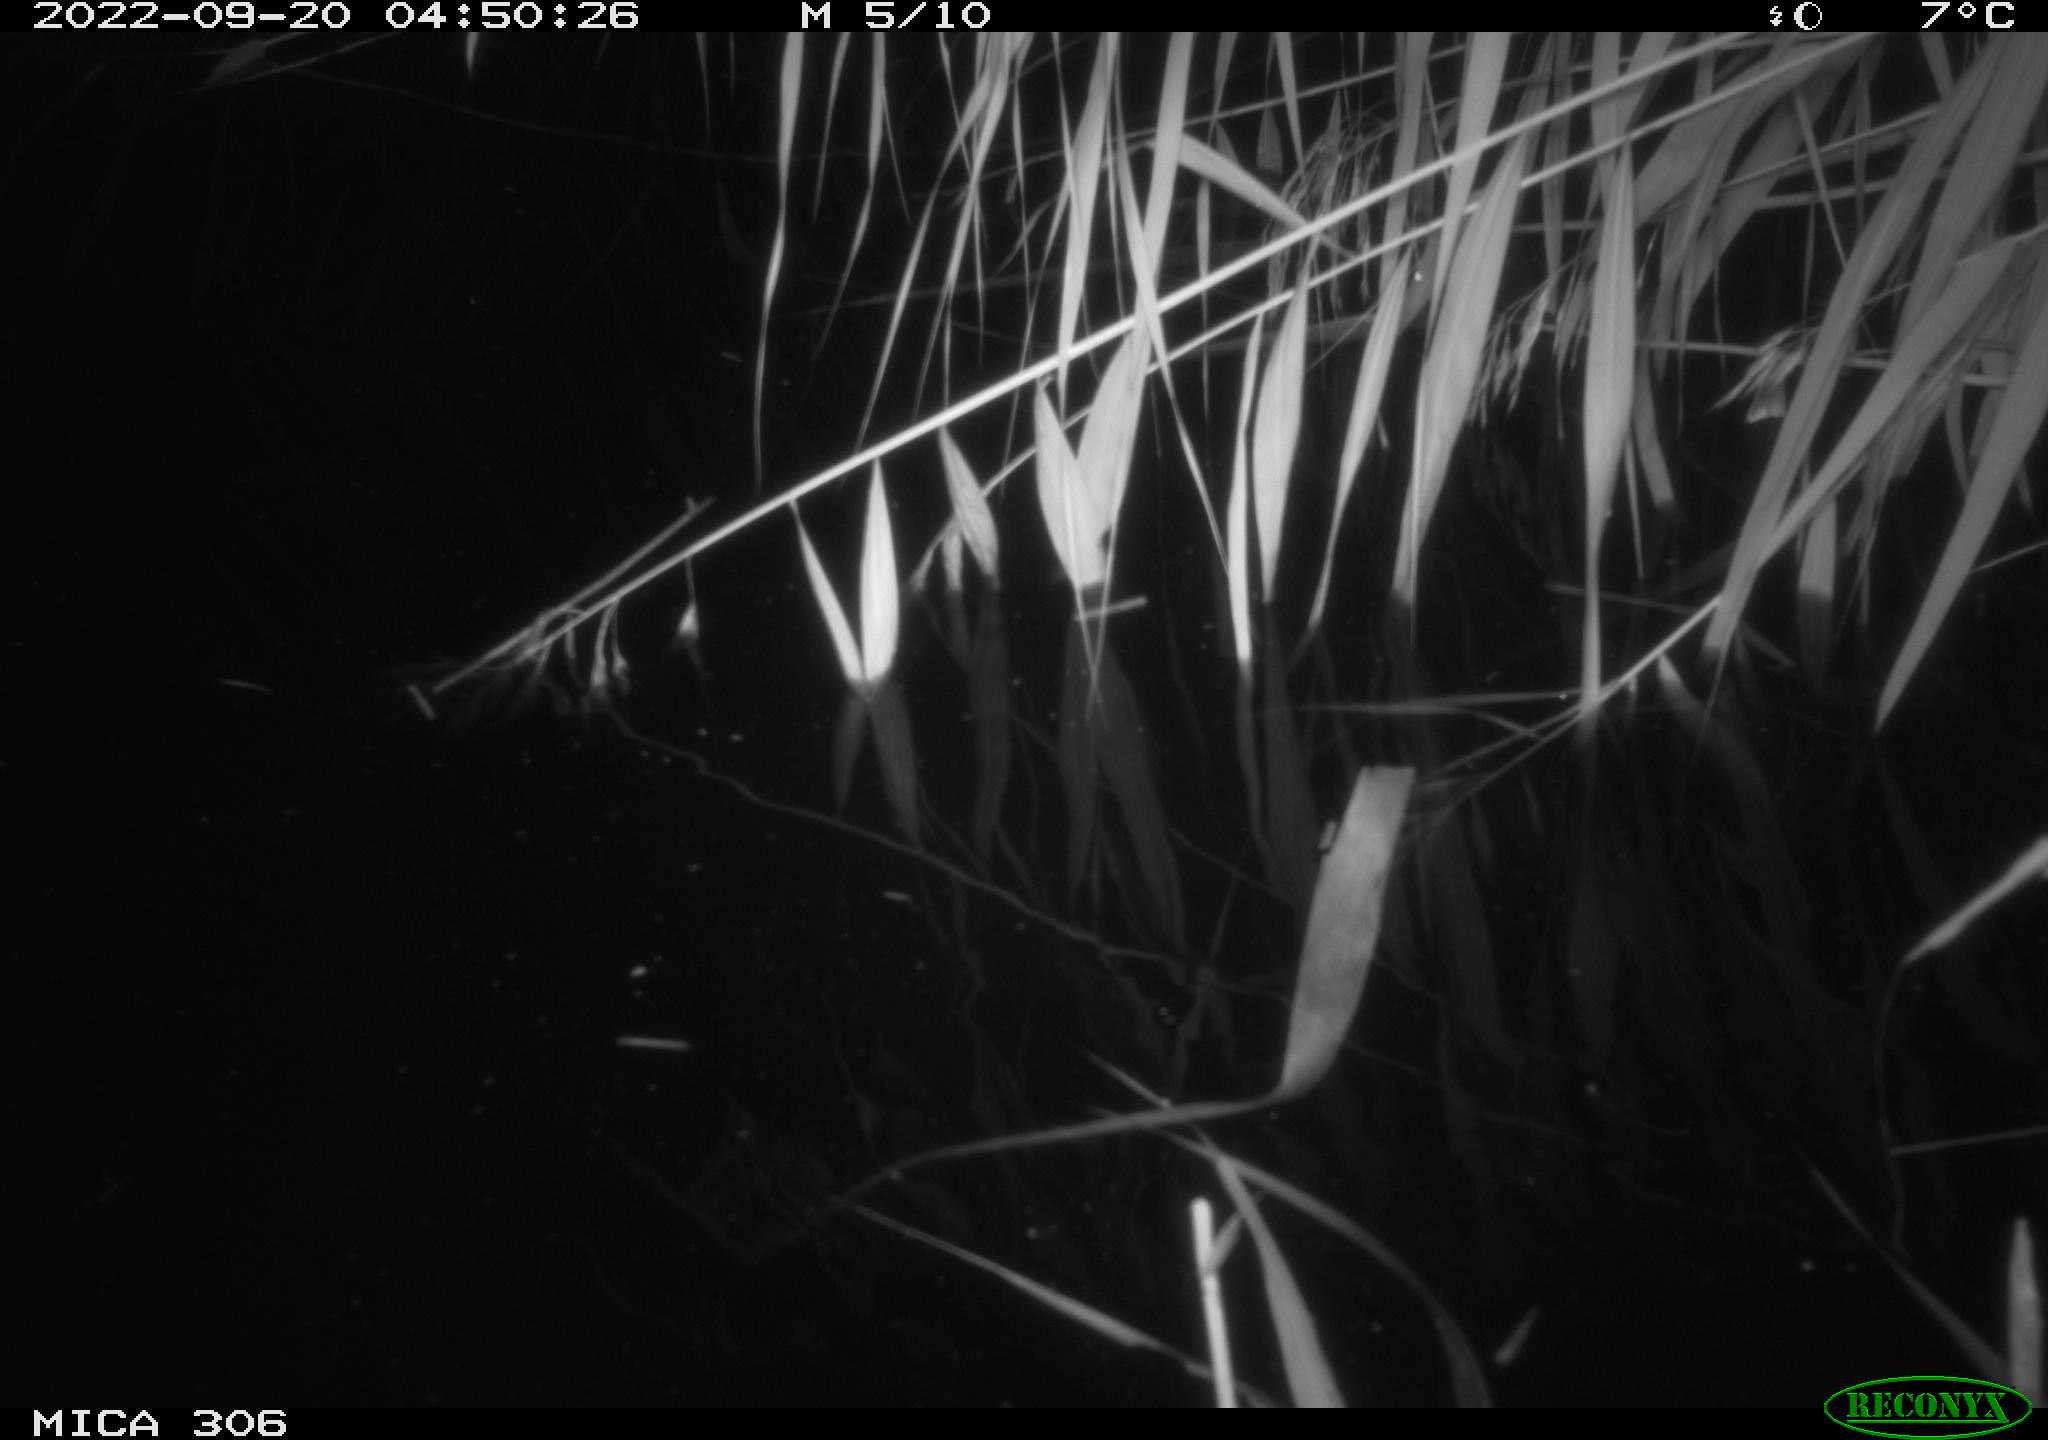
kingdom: Animalia
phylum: Chordata
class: Mammalia
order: Rodentia
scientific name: Rodentia
